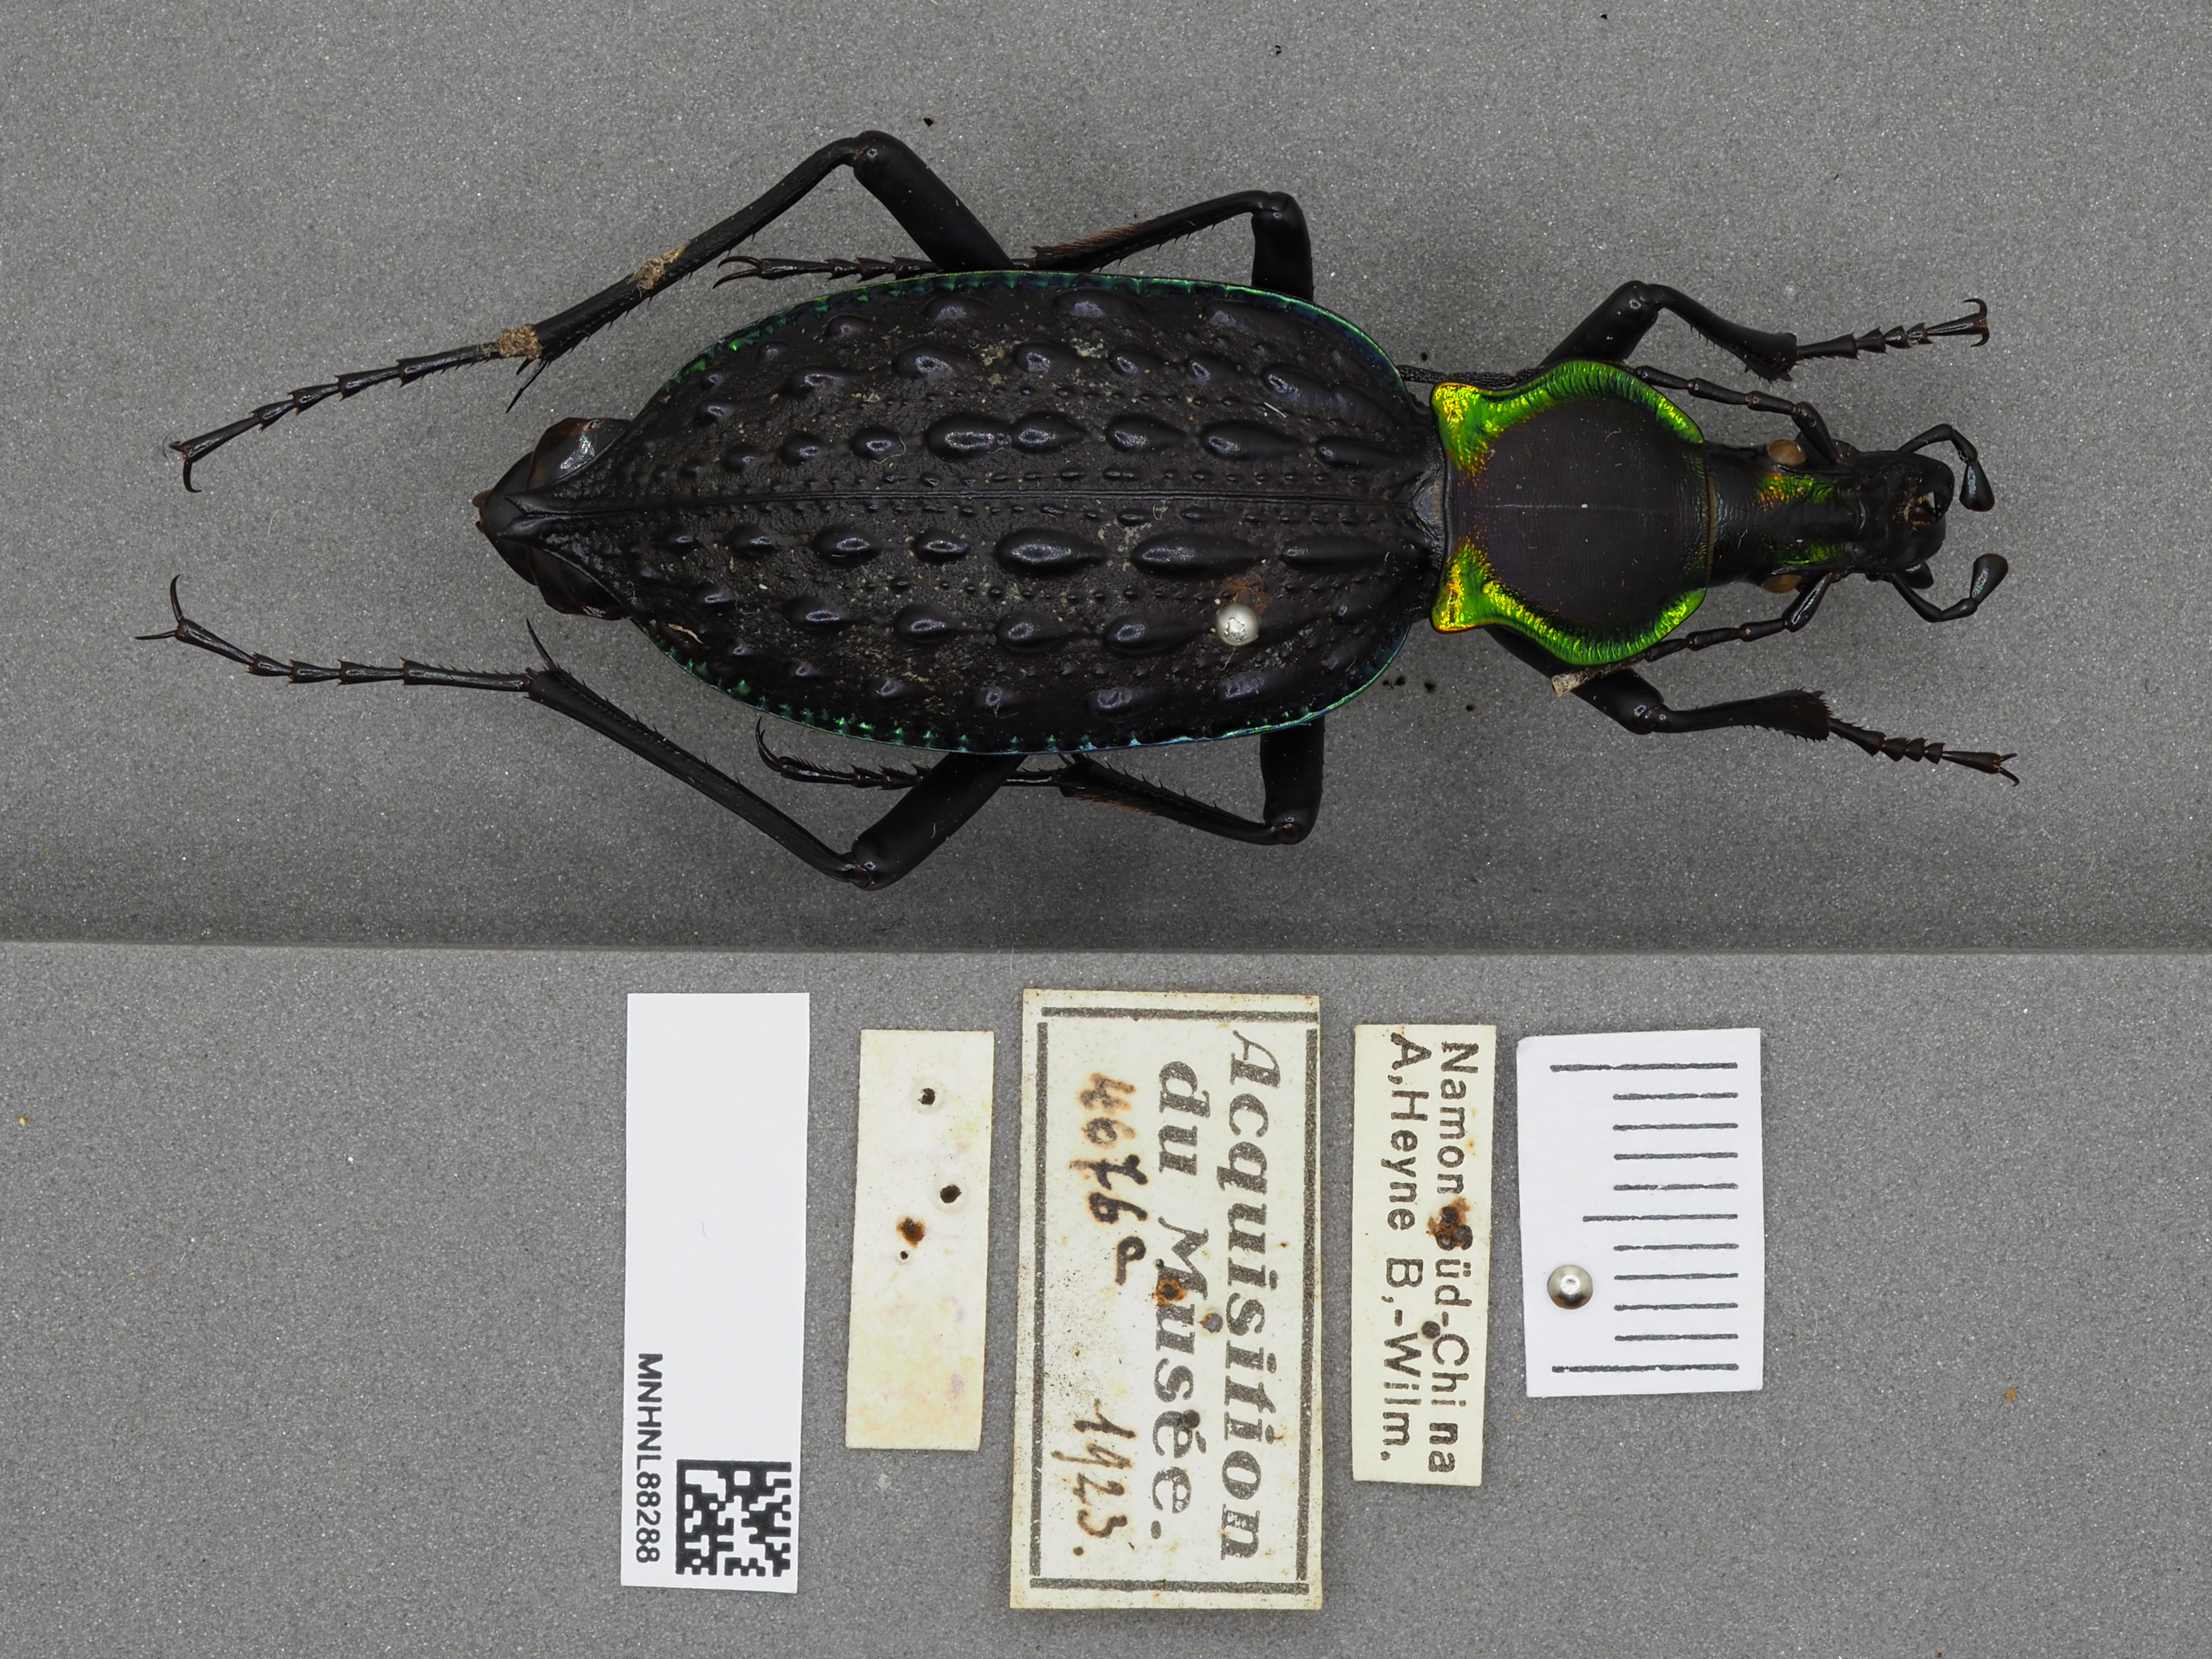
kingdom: Animalia
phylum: Arthropoda
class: Insecta
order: Coleoptera
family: Carabidae
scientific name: Carabidae
